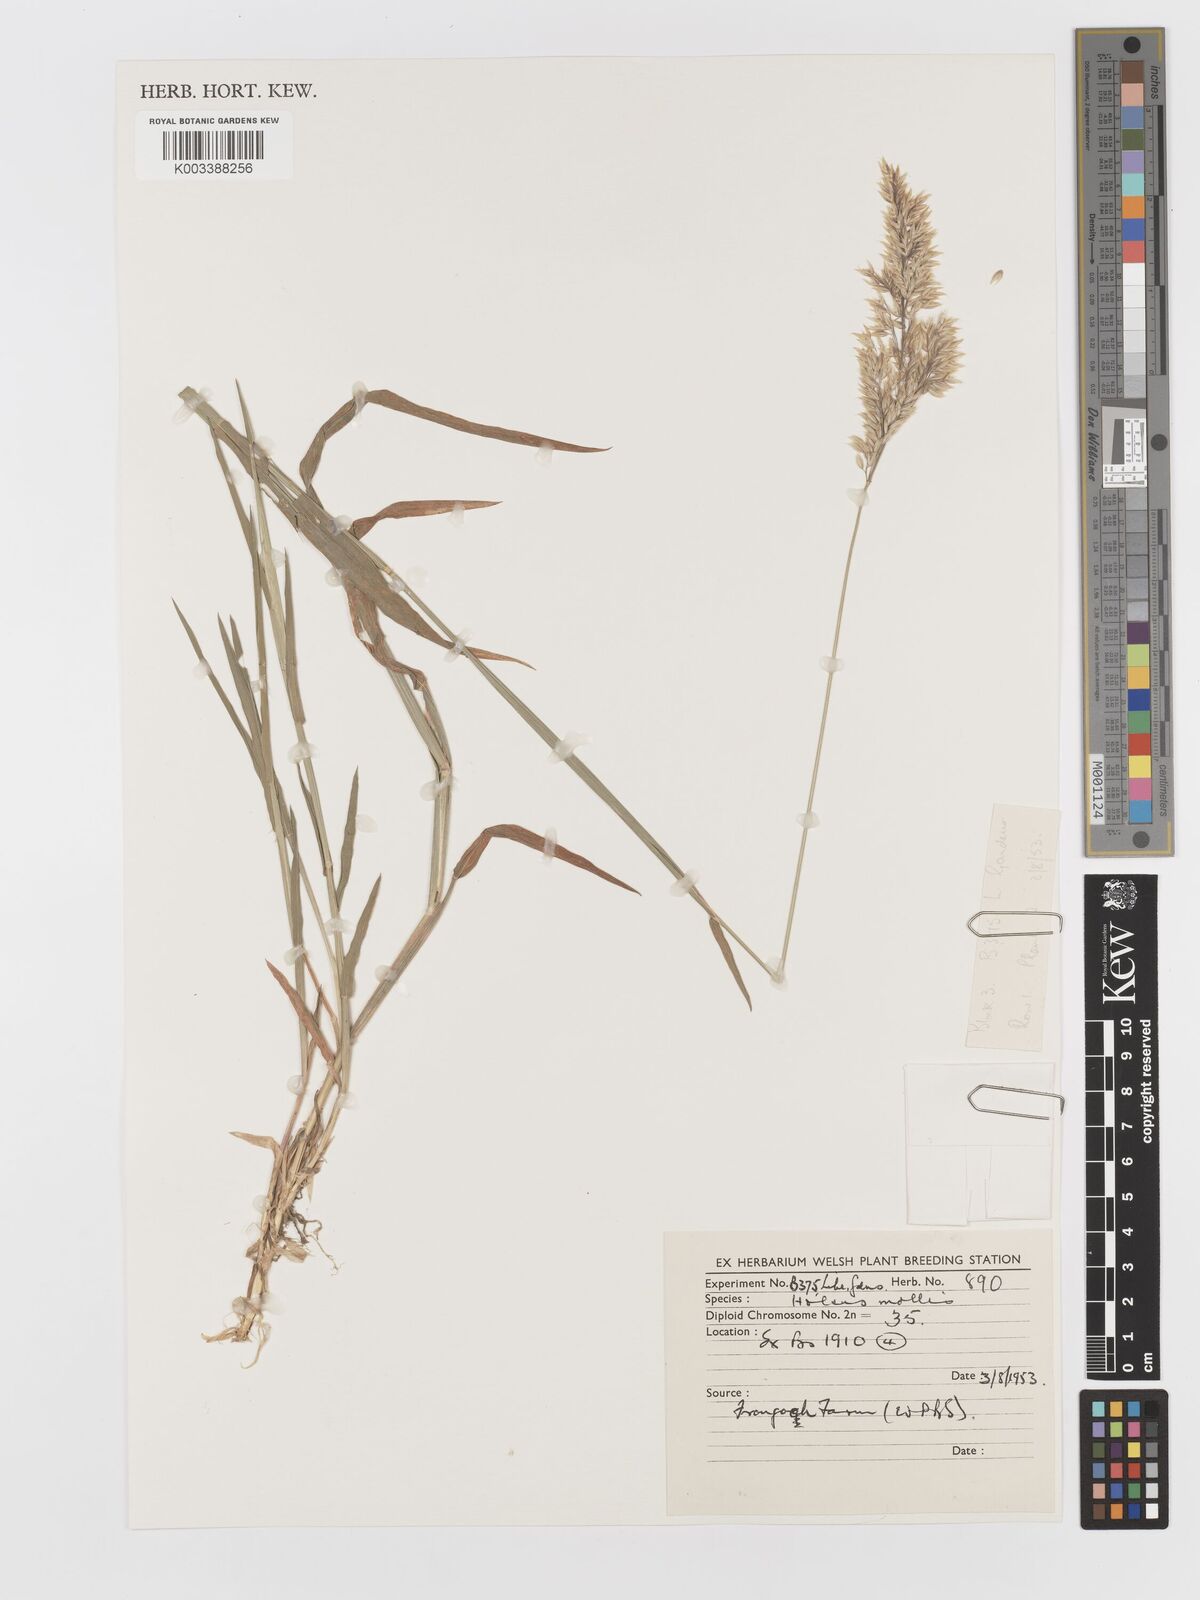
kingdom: Plantae
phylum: Tracheophyta
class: Liliopsida
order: Poales
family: Poaceae
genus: Holcus
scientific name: Holcus mollis
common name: Creeping velvetgrass
